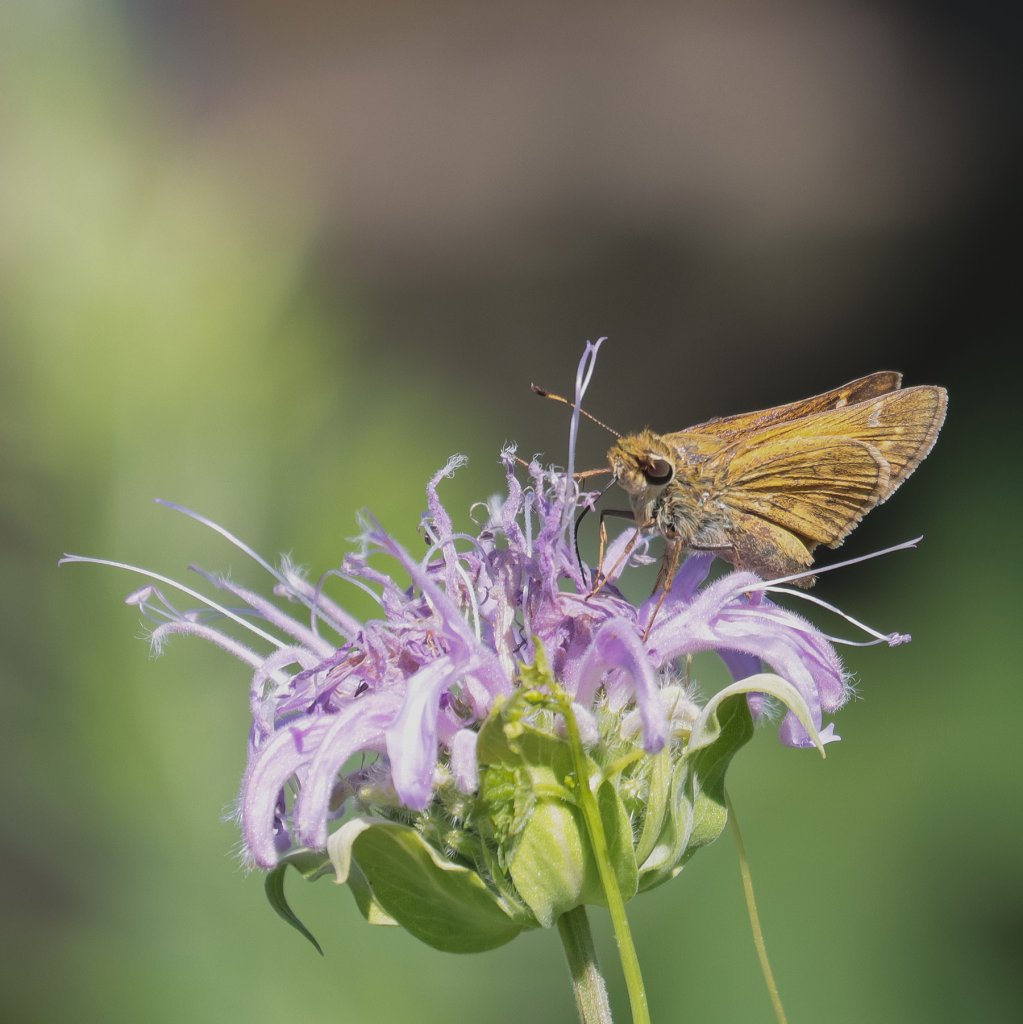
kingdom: Animalia
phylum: Arthropoda
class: Insecta
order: Lepidoptera
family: Hesperiidae
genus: Atalopedes
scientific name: Atalopedes campestris
